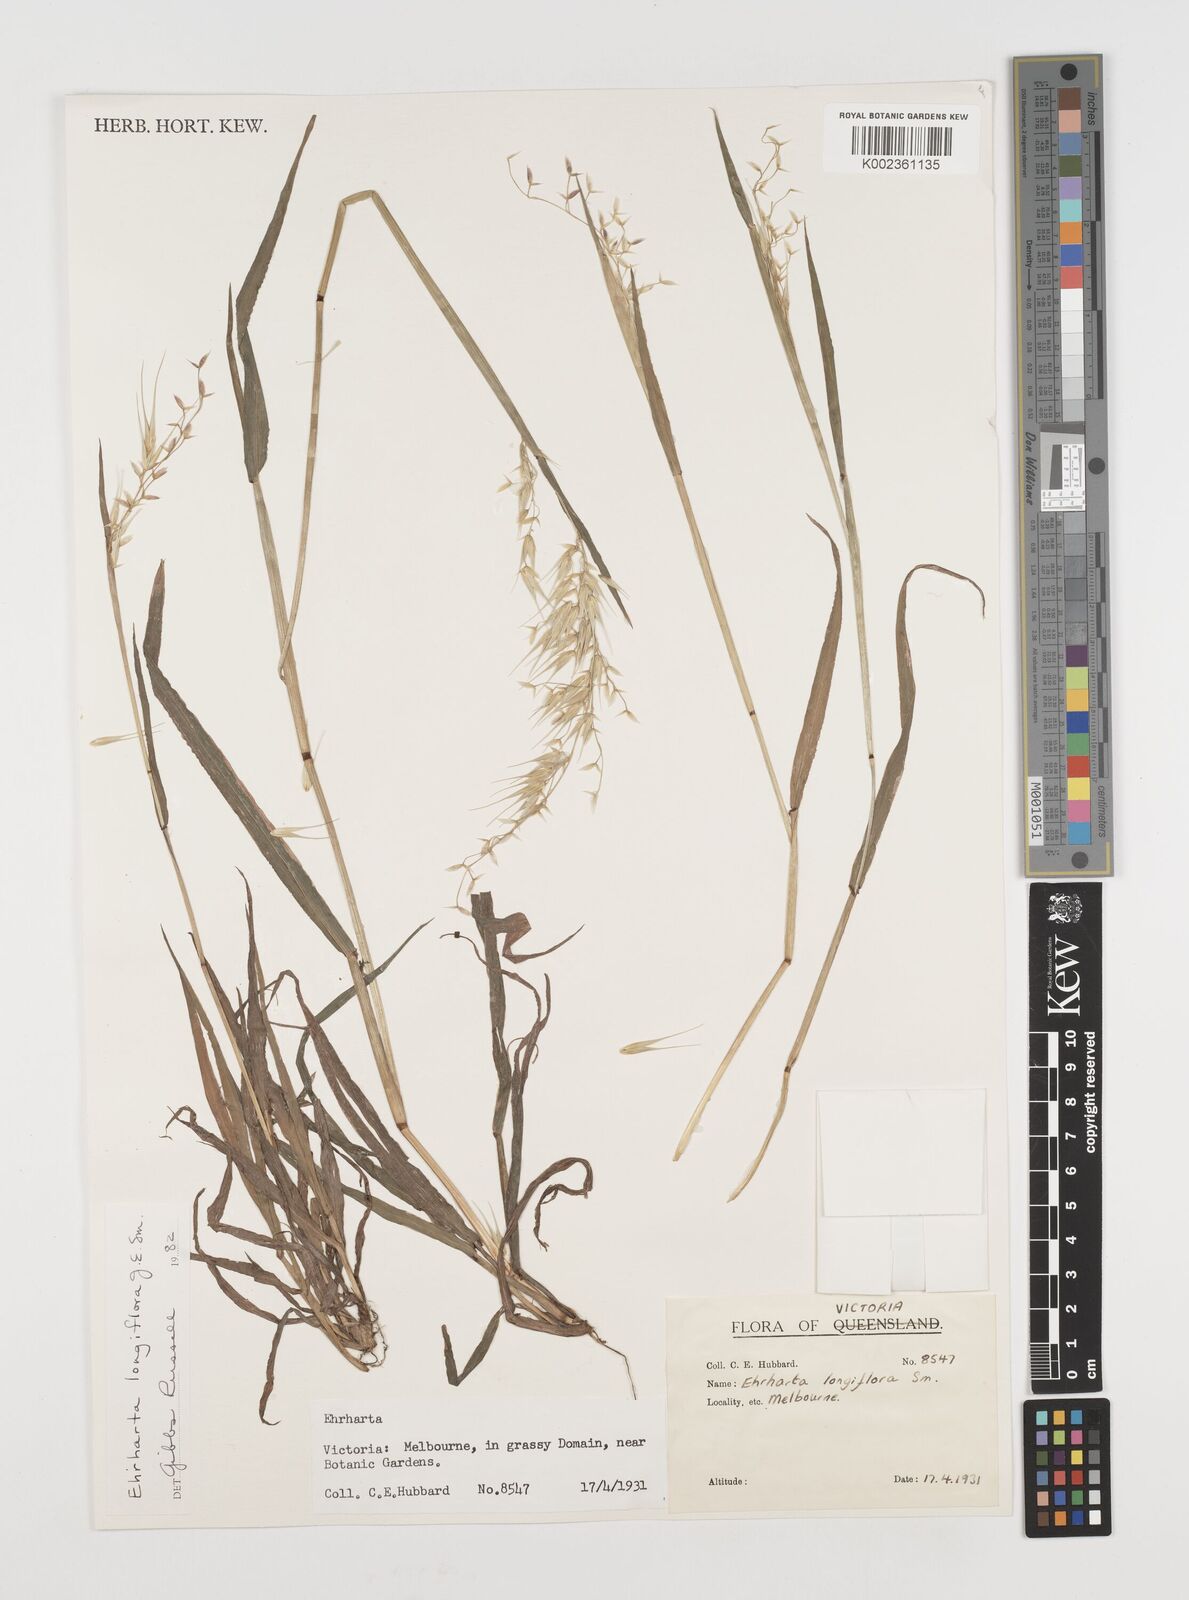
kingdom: Plantae
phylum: Tracheophyta
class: Liliopsida
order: Poales
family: Poaceae
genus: Ehrharta
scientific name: Ehrharta longiflora
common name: Longflowered veldtgrass
